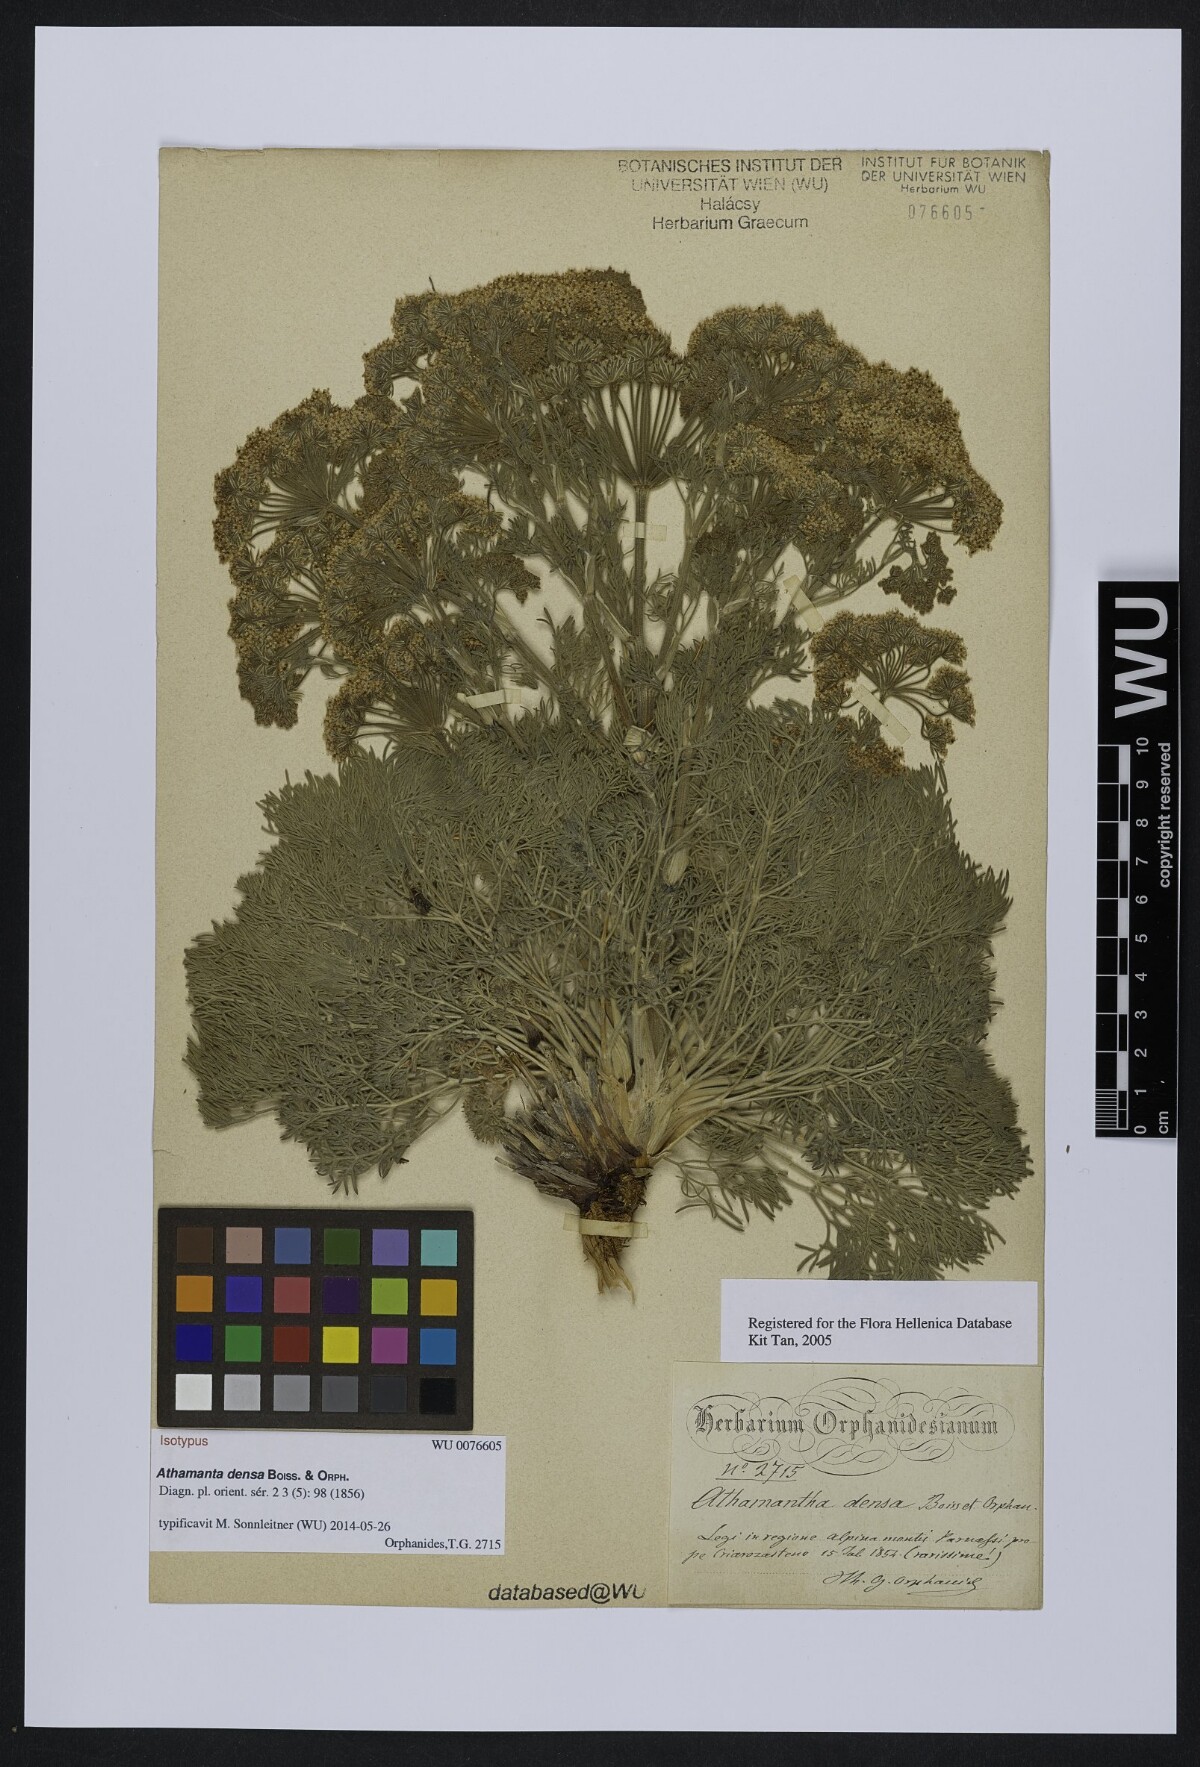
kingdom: Plantae
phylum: Tracheophyta
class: Magnoliopsida
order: Apiales
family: Apiaceae
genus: Athamanta
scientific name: Athamanta densa
